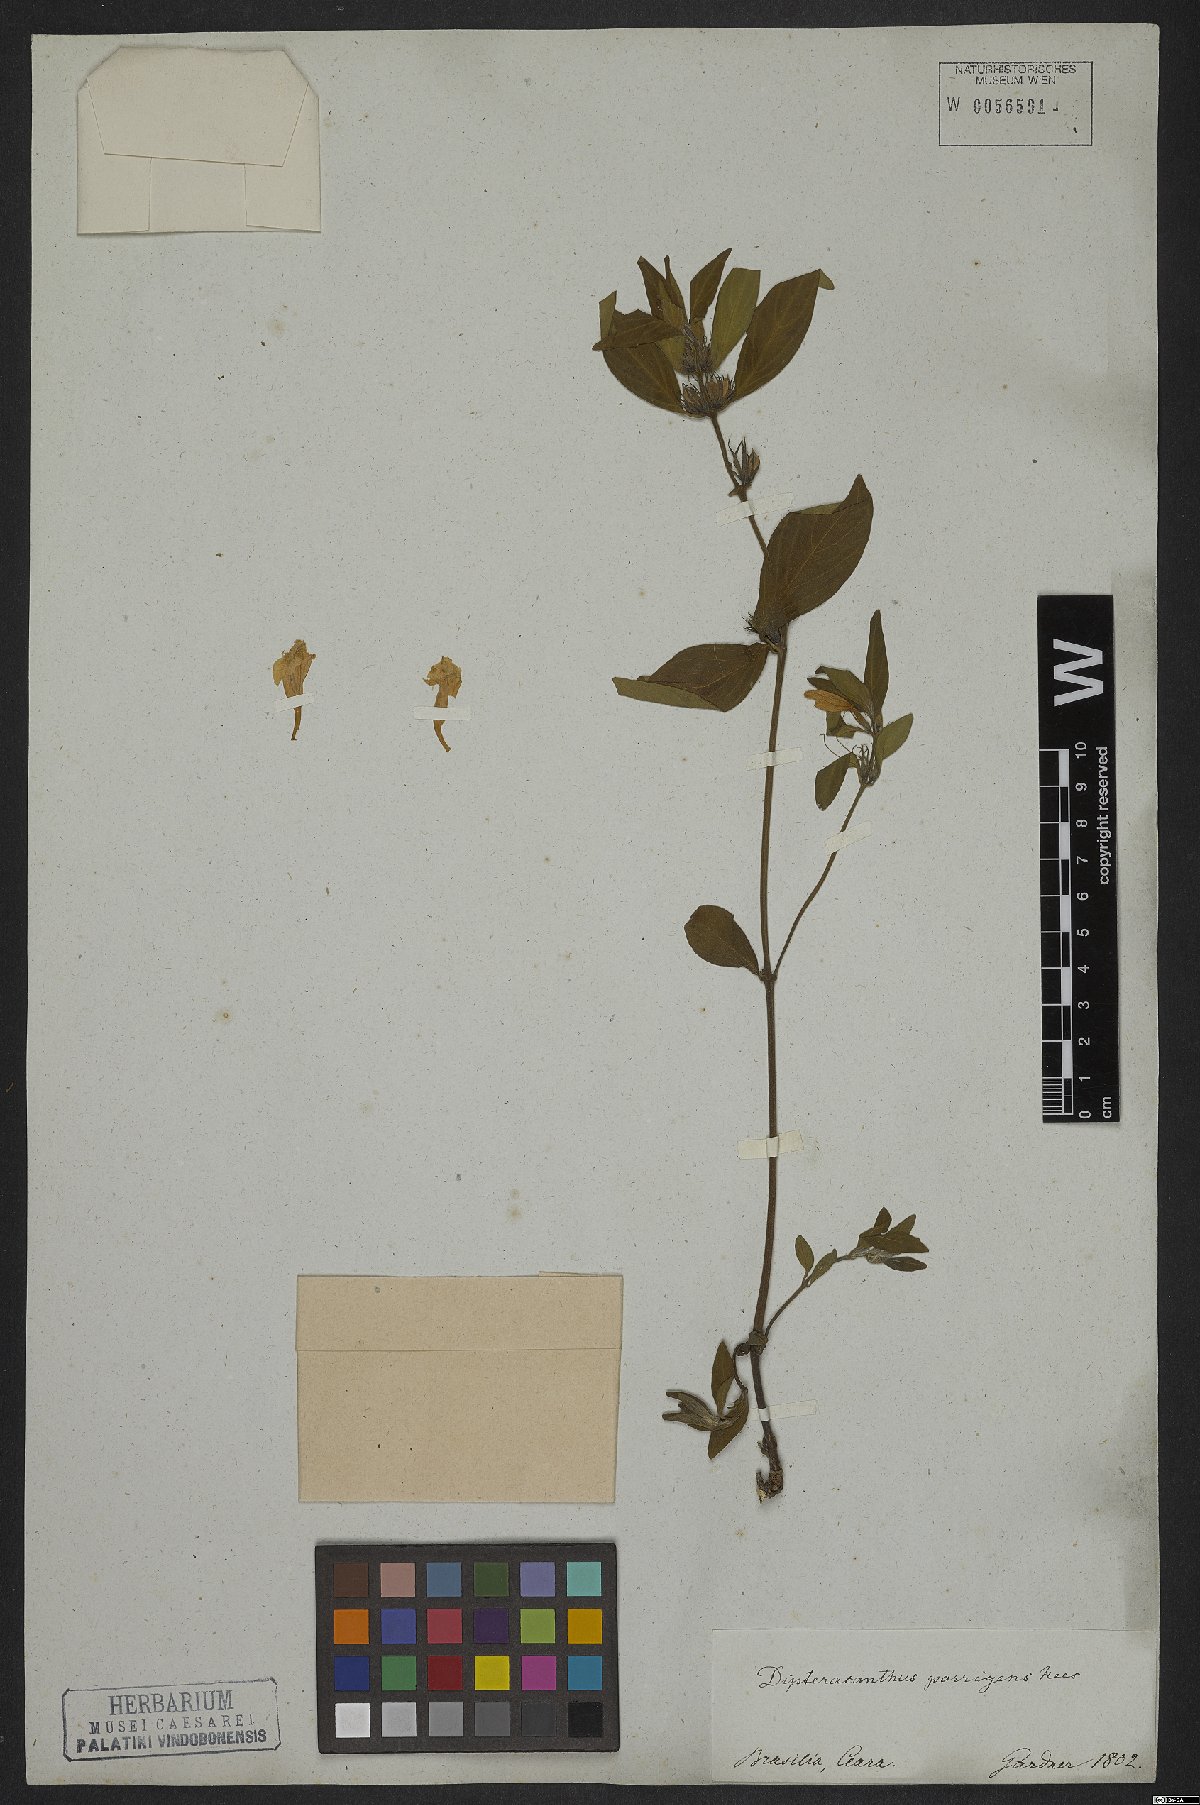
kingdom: Plantae
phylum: Tracheophyta
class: Magnoliopsida
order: Lamiales
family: Acanthaceae
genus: Ruellia
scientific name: Ruellia geminiflora
